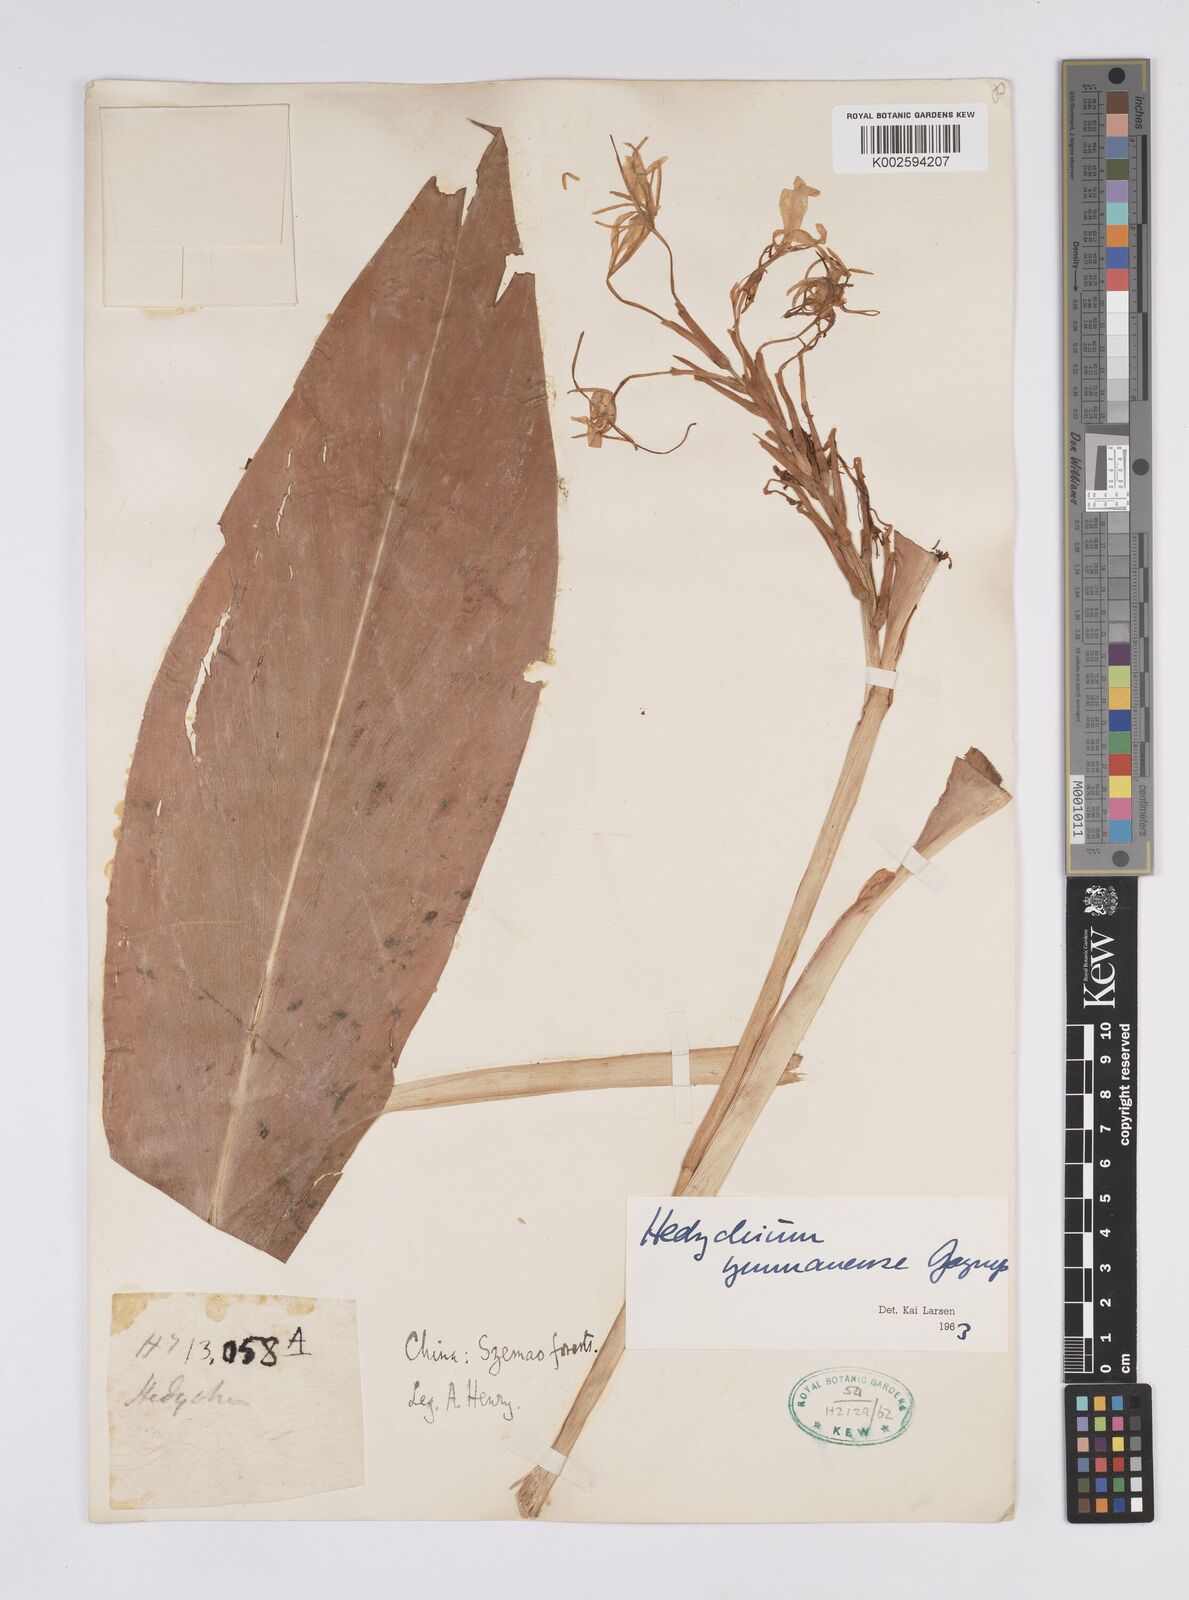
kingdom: Plantae
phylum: Tracheophyta
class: Liliopsida
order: Zingiberales
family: Zingiberaceae
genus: Hedychium
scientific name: Hedychium yunnanense
